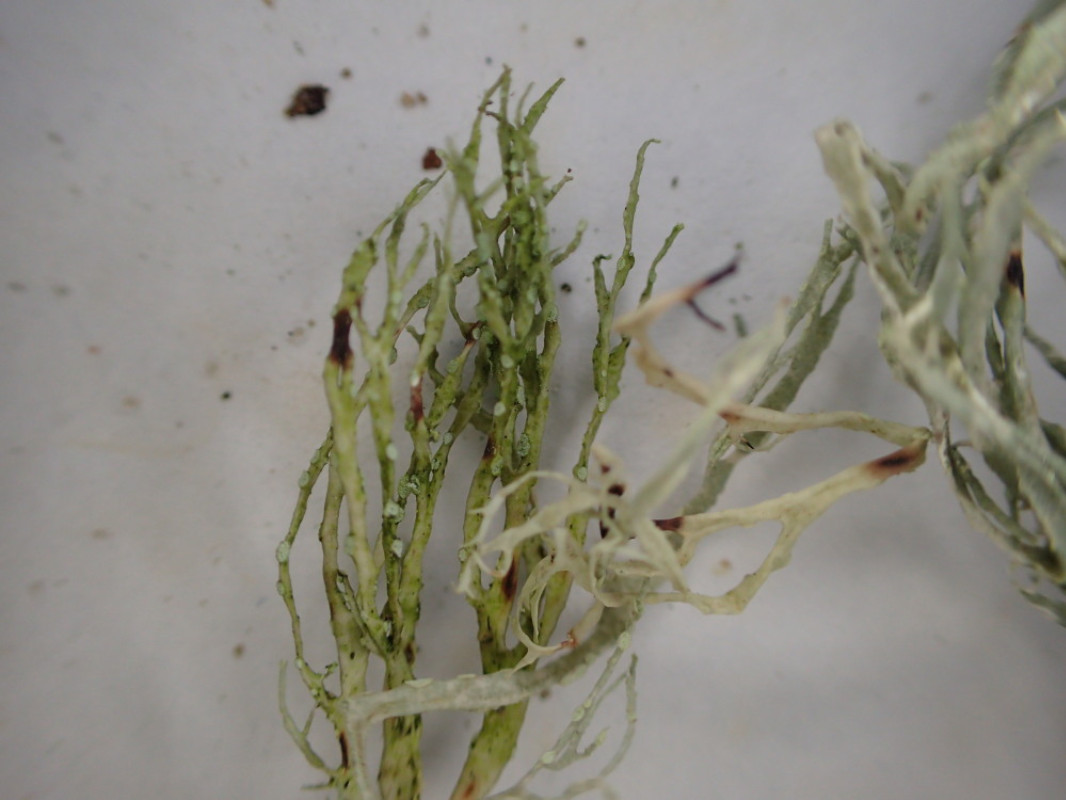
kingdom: Fungi
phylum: Ascomycota
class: Lecanoromycetes
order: Lecanorales
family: Ramalinaceae
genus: Ramalina
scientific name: Ramalina farinacea
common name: melet grenlav
